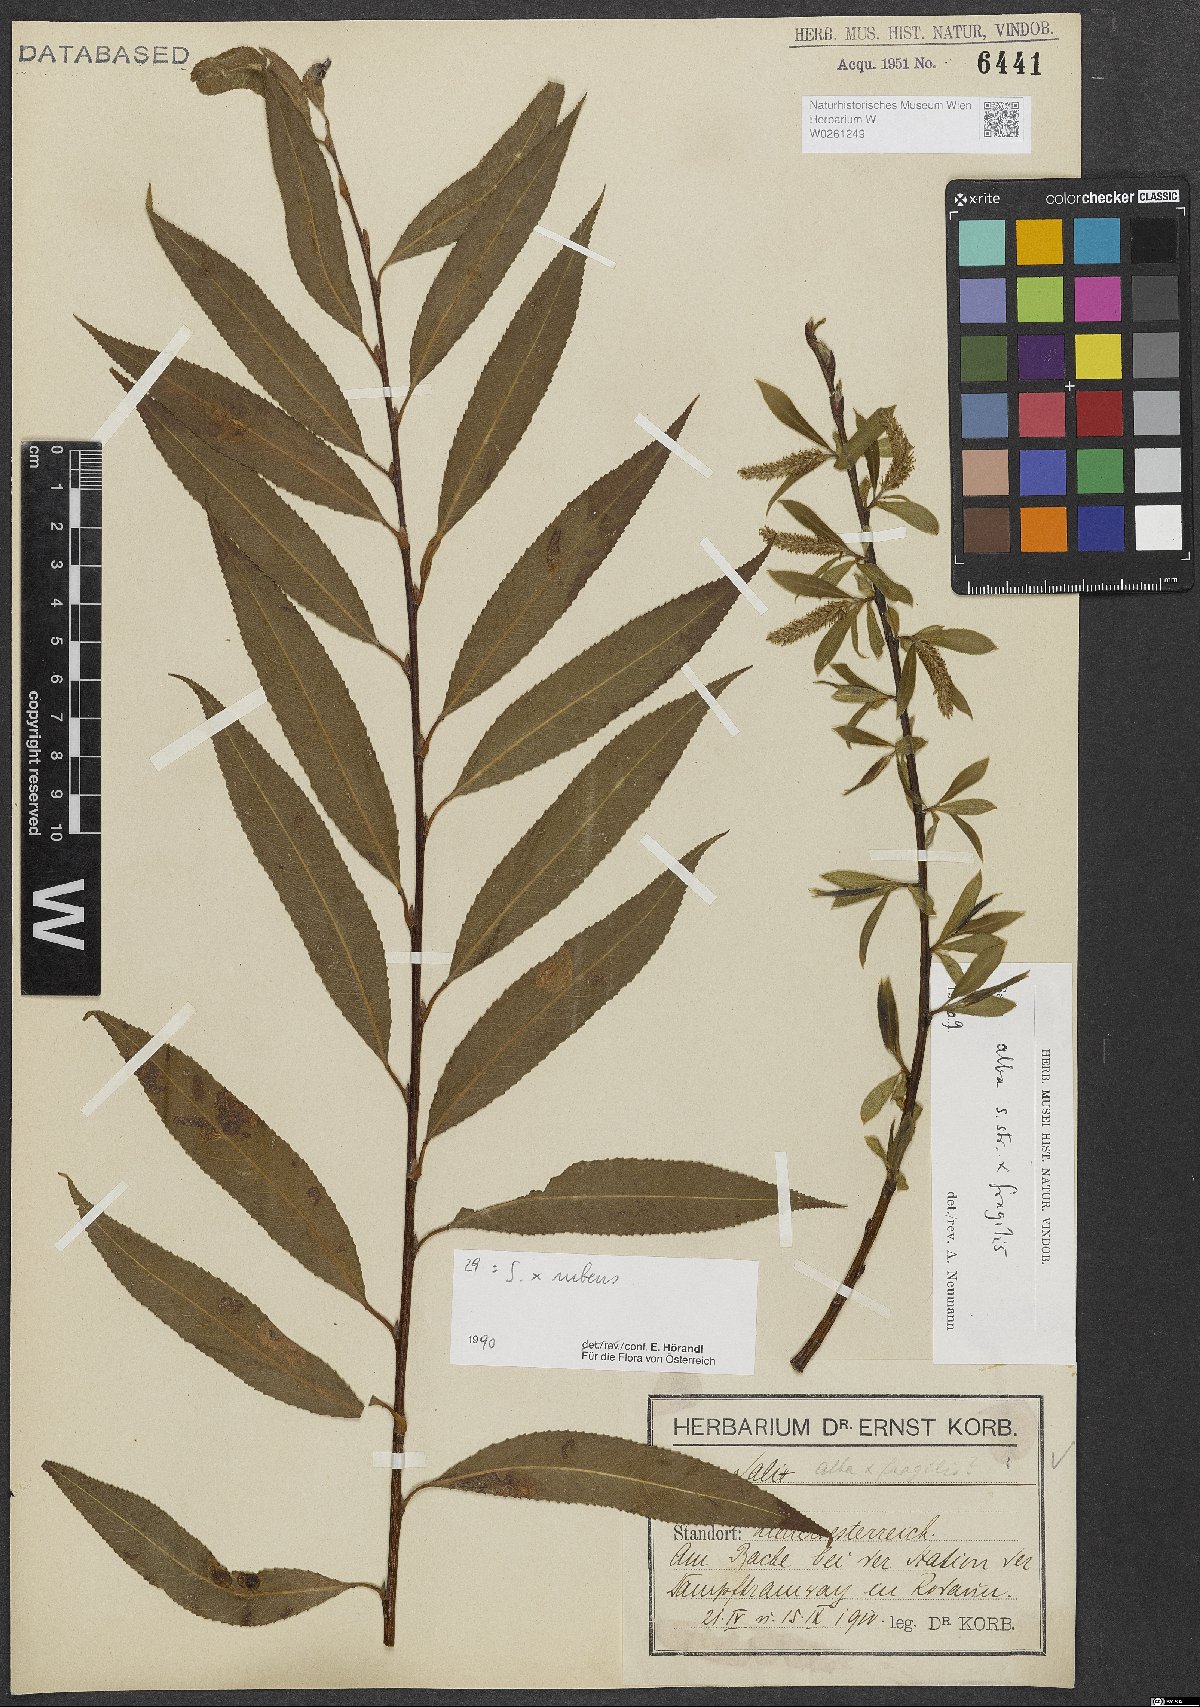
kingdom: Plantae
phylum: Tracheophyta
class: Magnoliopsida
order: Malpighiales
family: Salicaceae
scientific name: Salicaceae
